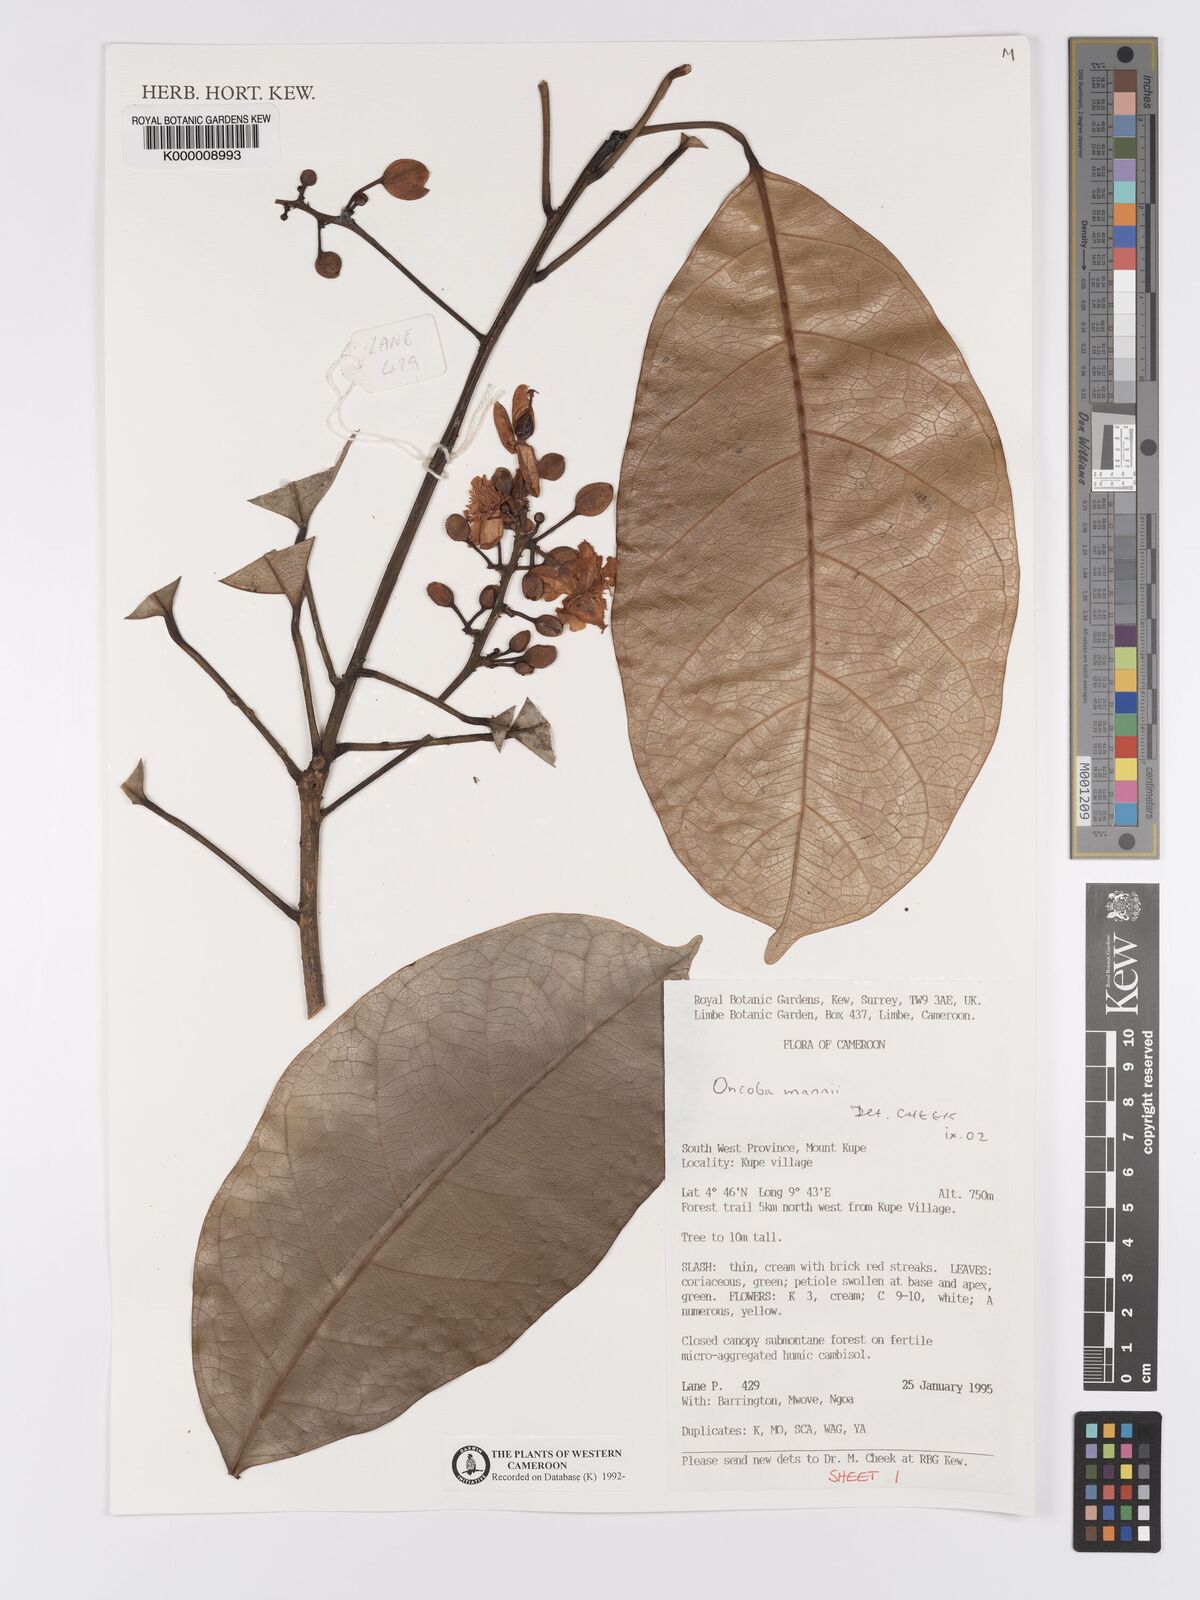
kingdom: Plantae
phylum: Tracheophyta
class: Magnoliopsida
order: Malpighiales
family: Achariaceae
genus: Camptostylus
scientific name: Camptostylus mannii
